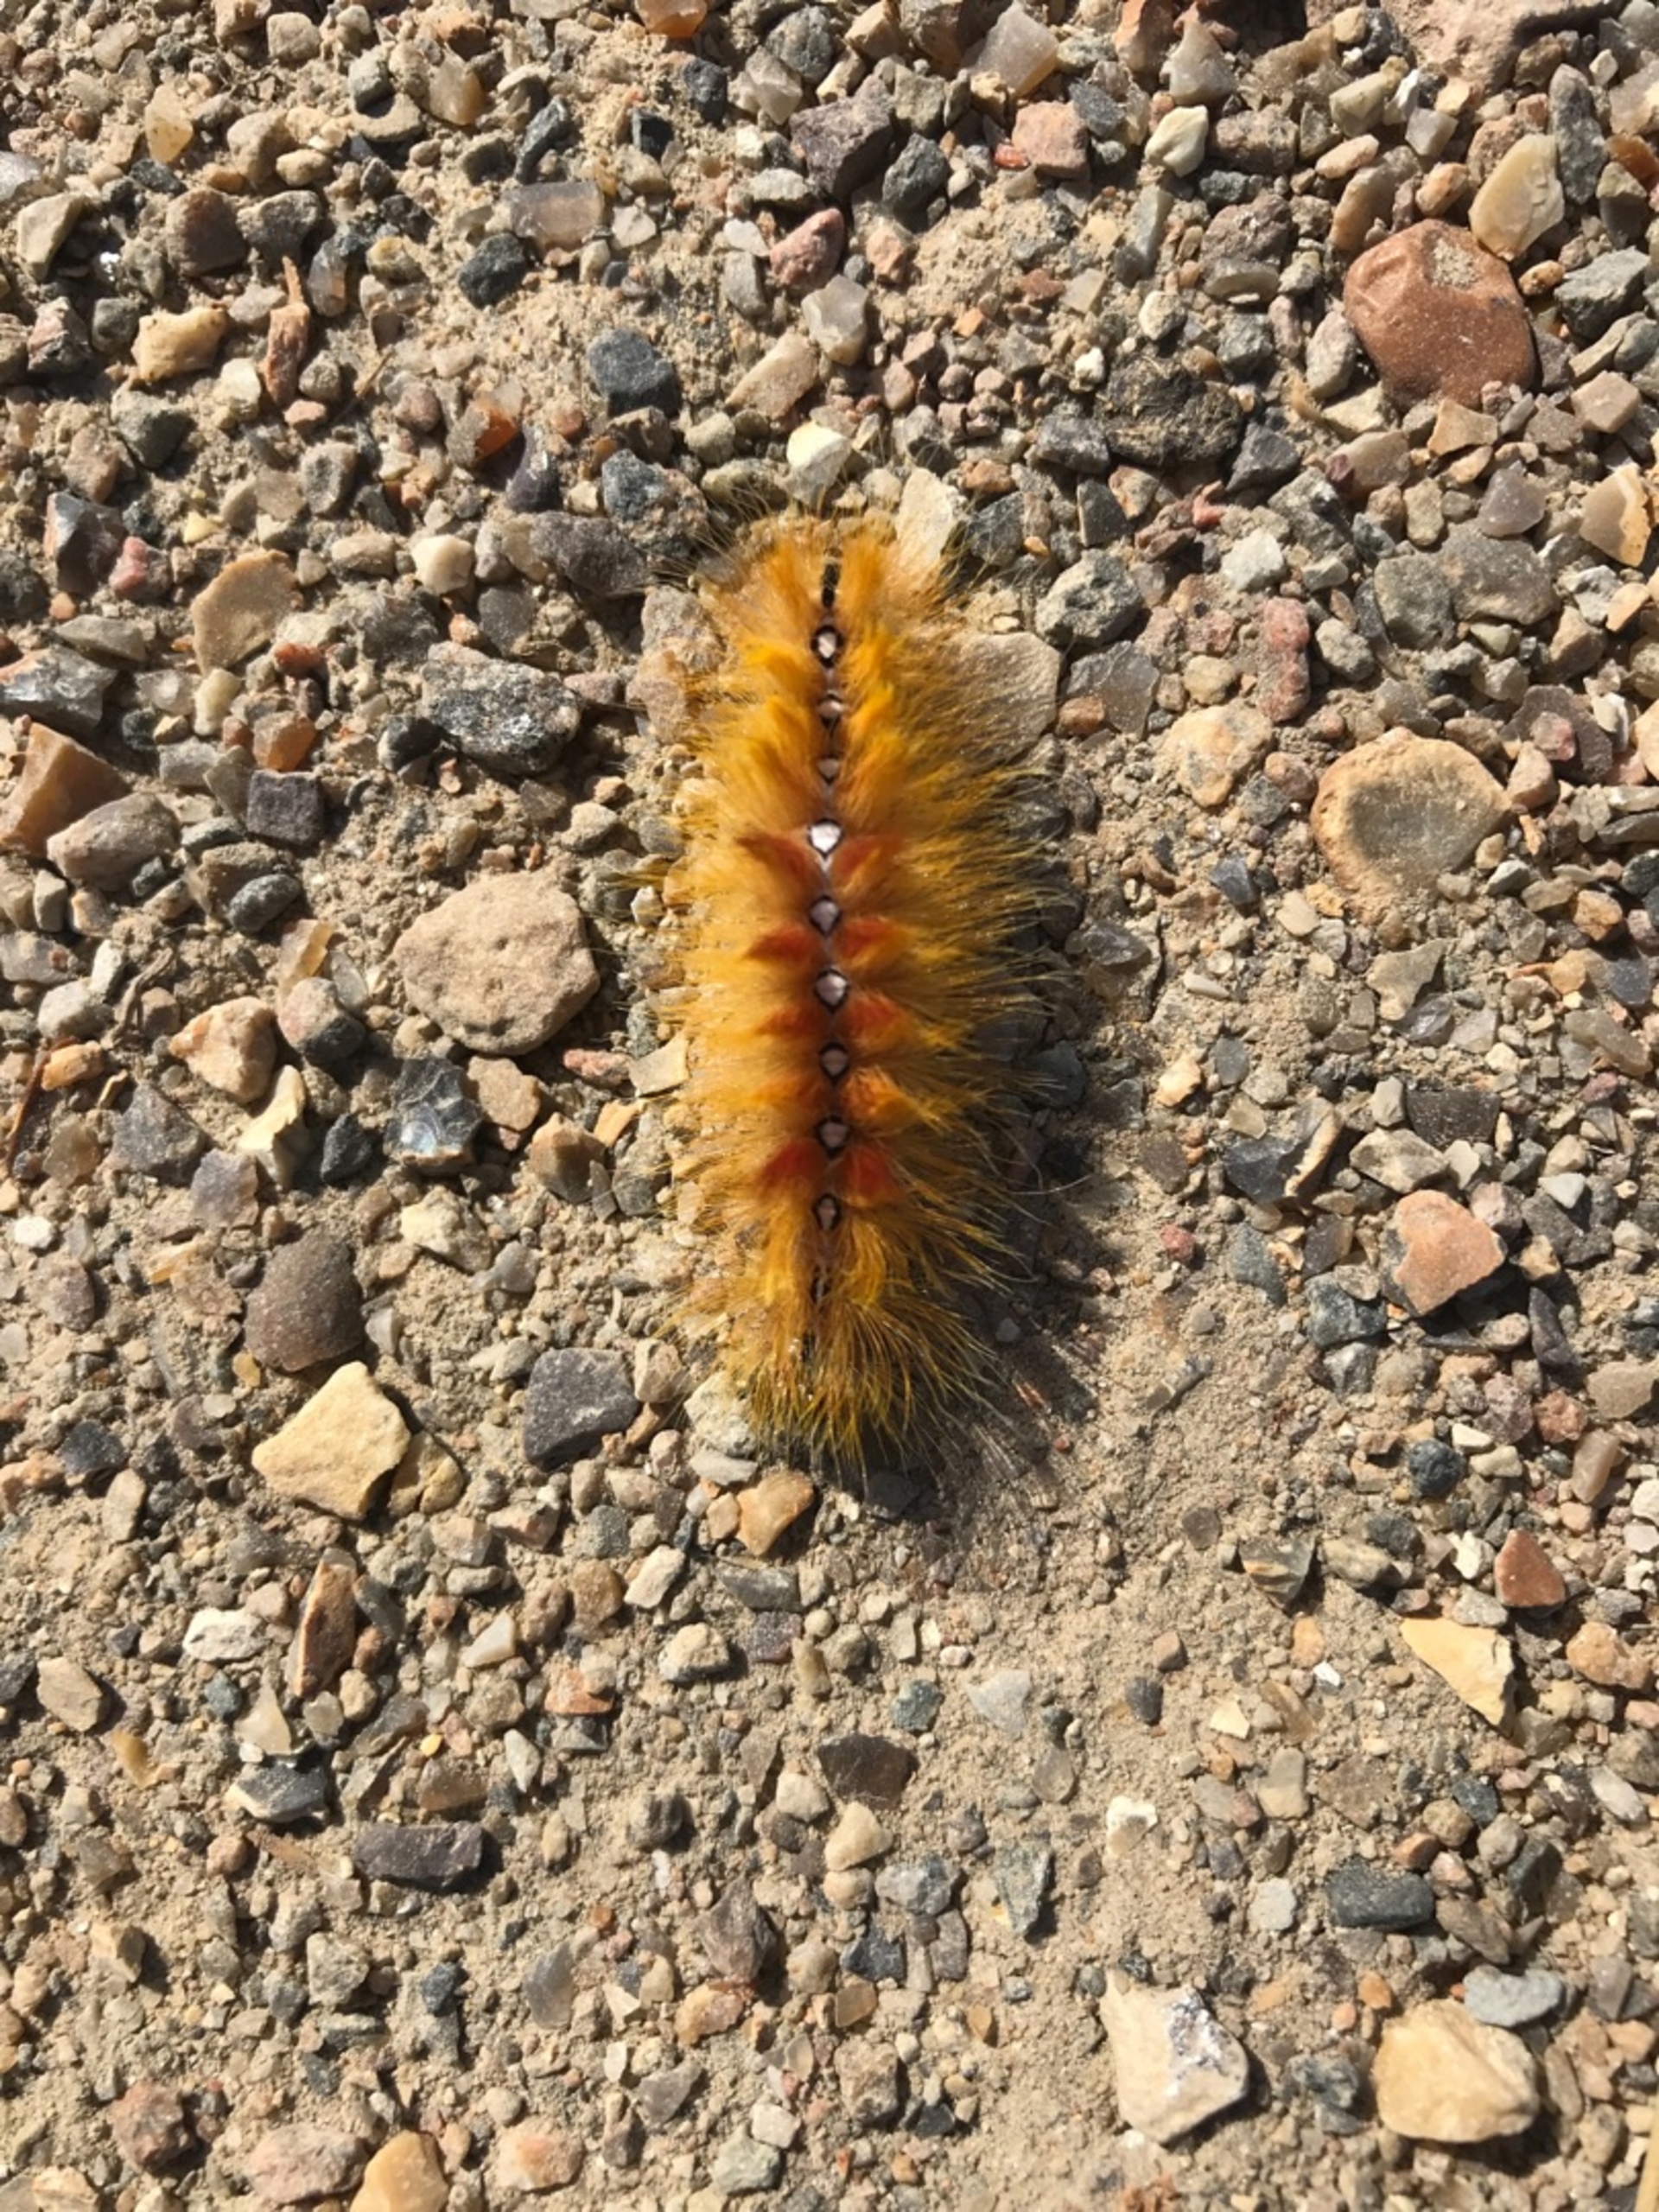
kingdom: Animalia
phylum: Arthropoda
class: Insecta
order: Lepidoptera
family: Noctuidae
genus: Acronicta
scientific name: Acronicta aceris
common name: Ahornugle
